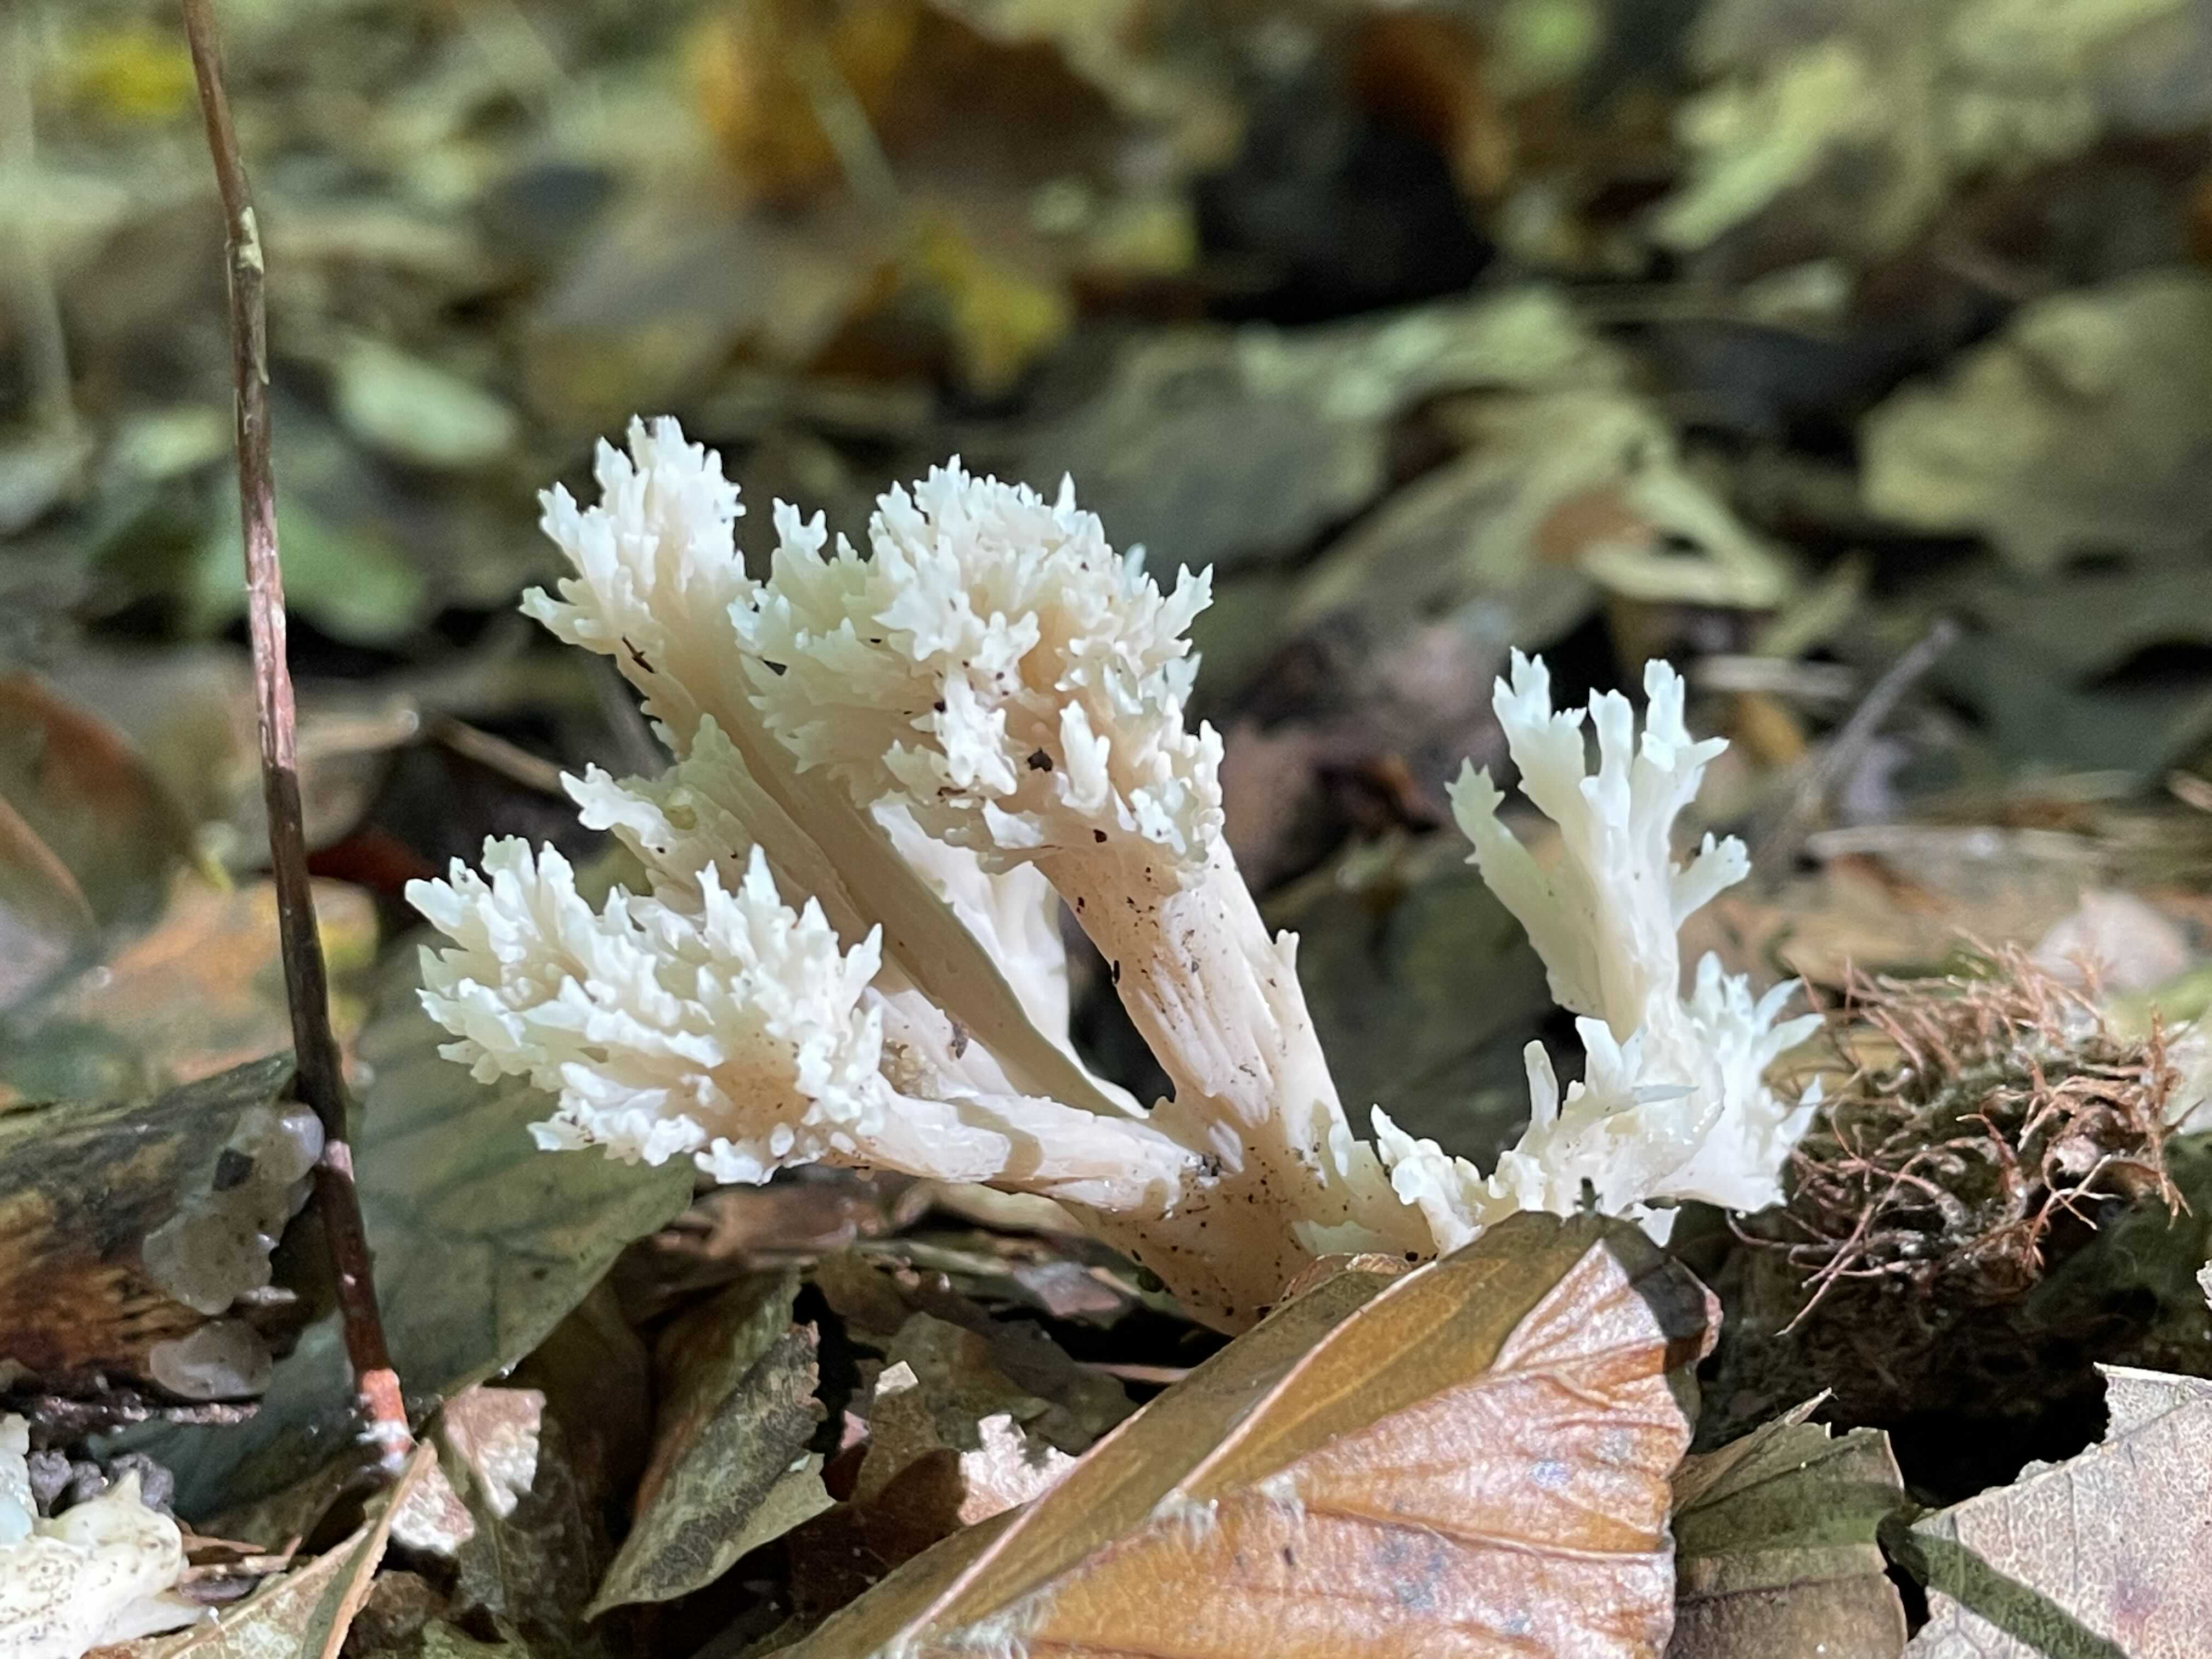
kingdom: Fungi
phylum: Basidiomycota
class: Agaricomycetes
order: Cantharellales
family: Hydnaceae
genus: Clavulina
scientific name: Clavulina
